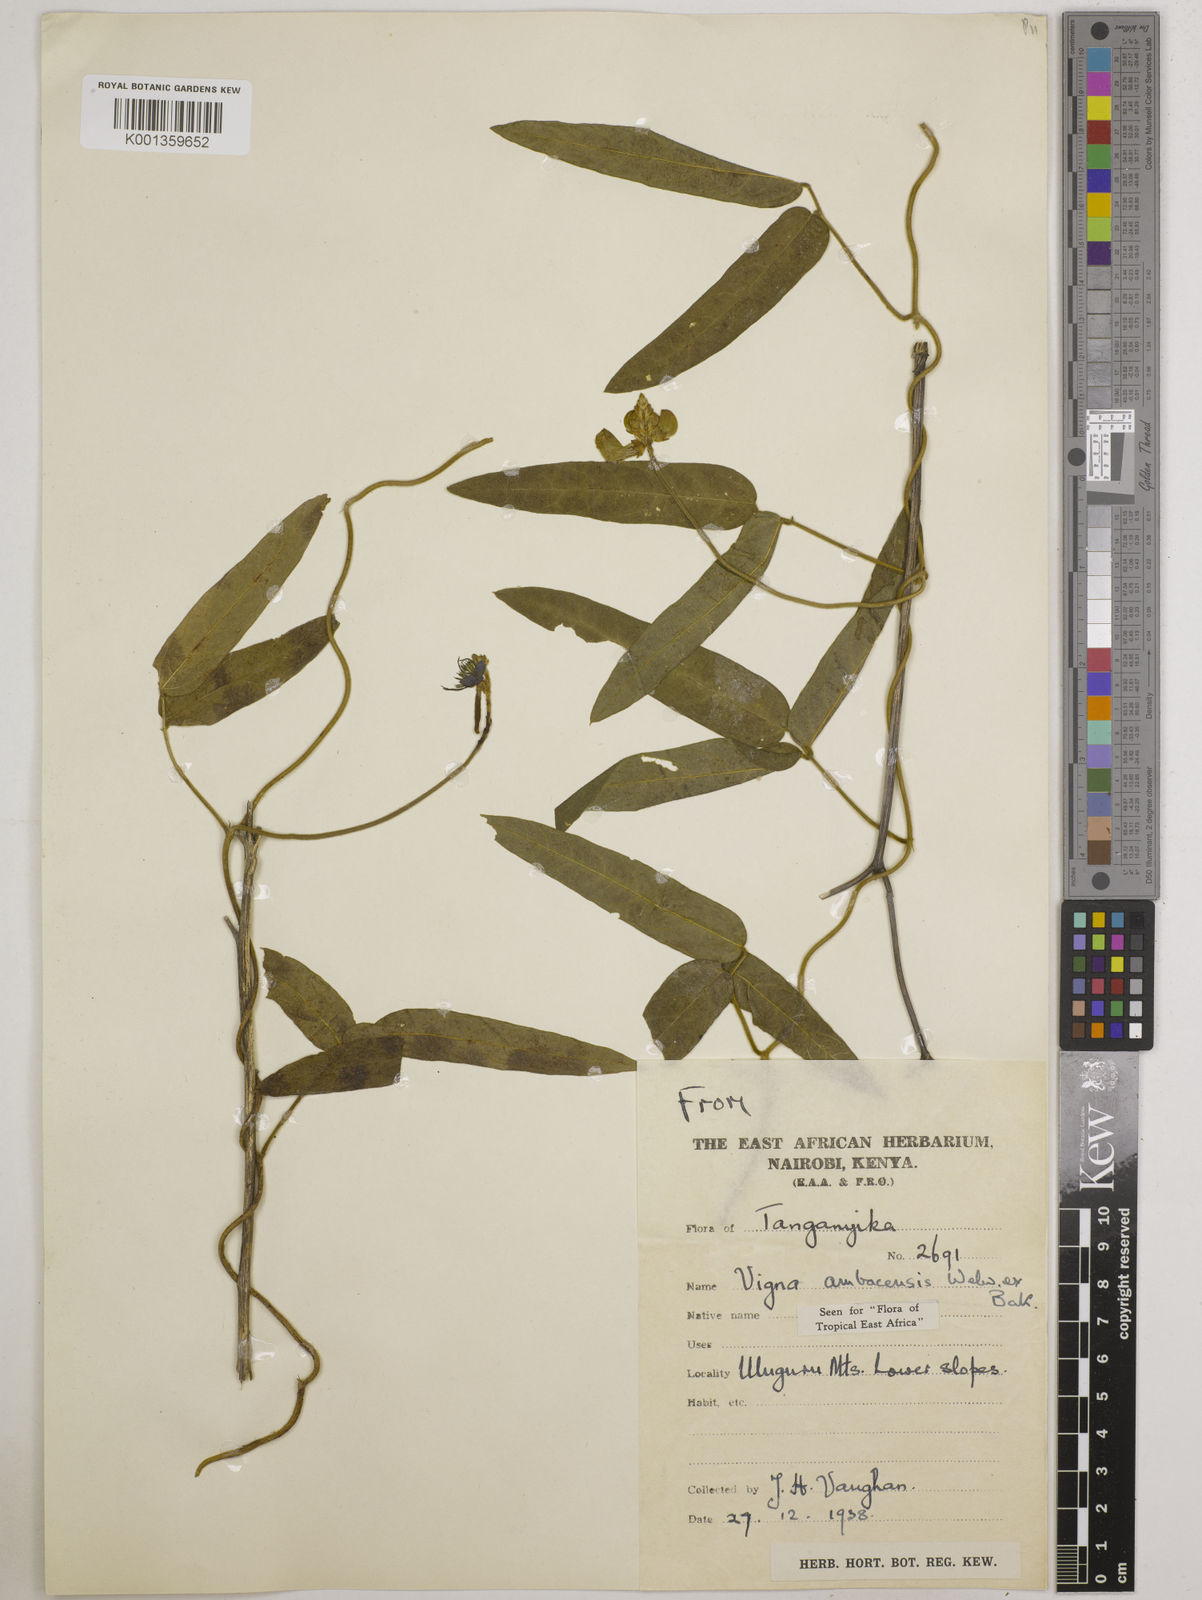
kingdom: Plantae
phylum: Tracheophyta
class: Magnoliopsida
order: Fabales
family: Fabaceae
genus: Vigna
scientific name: Vigna ambacensis
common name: Tsarkiyan zomo
